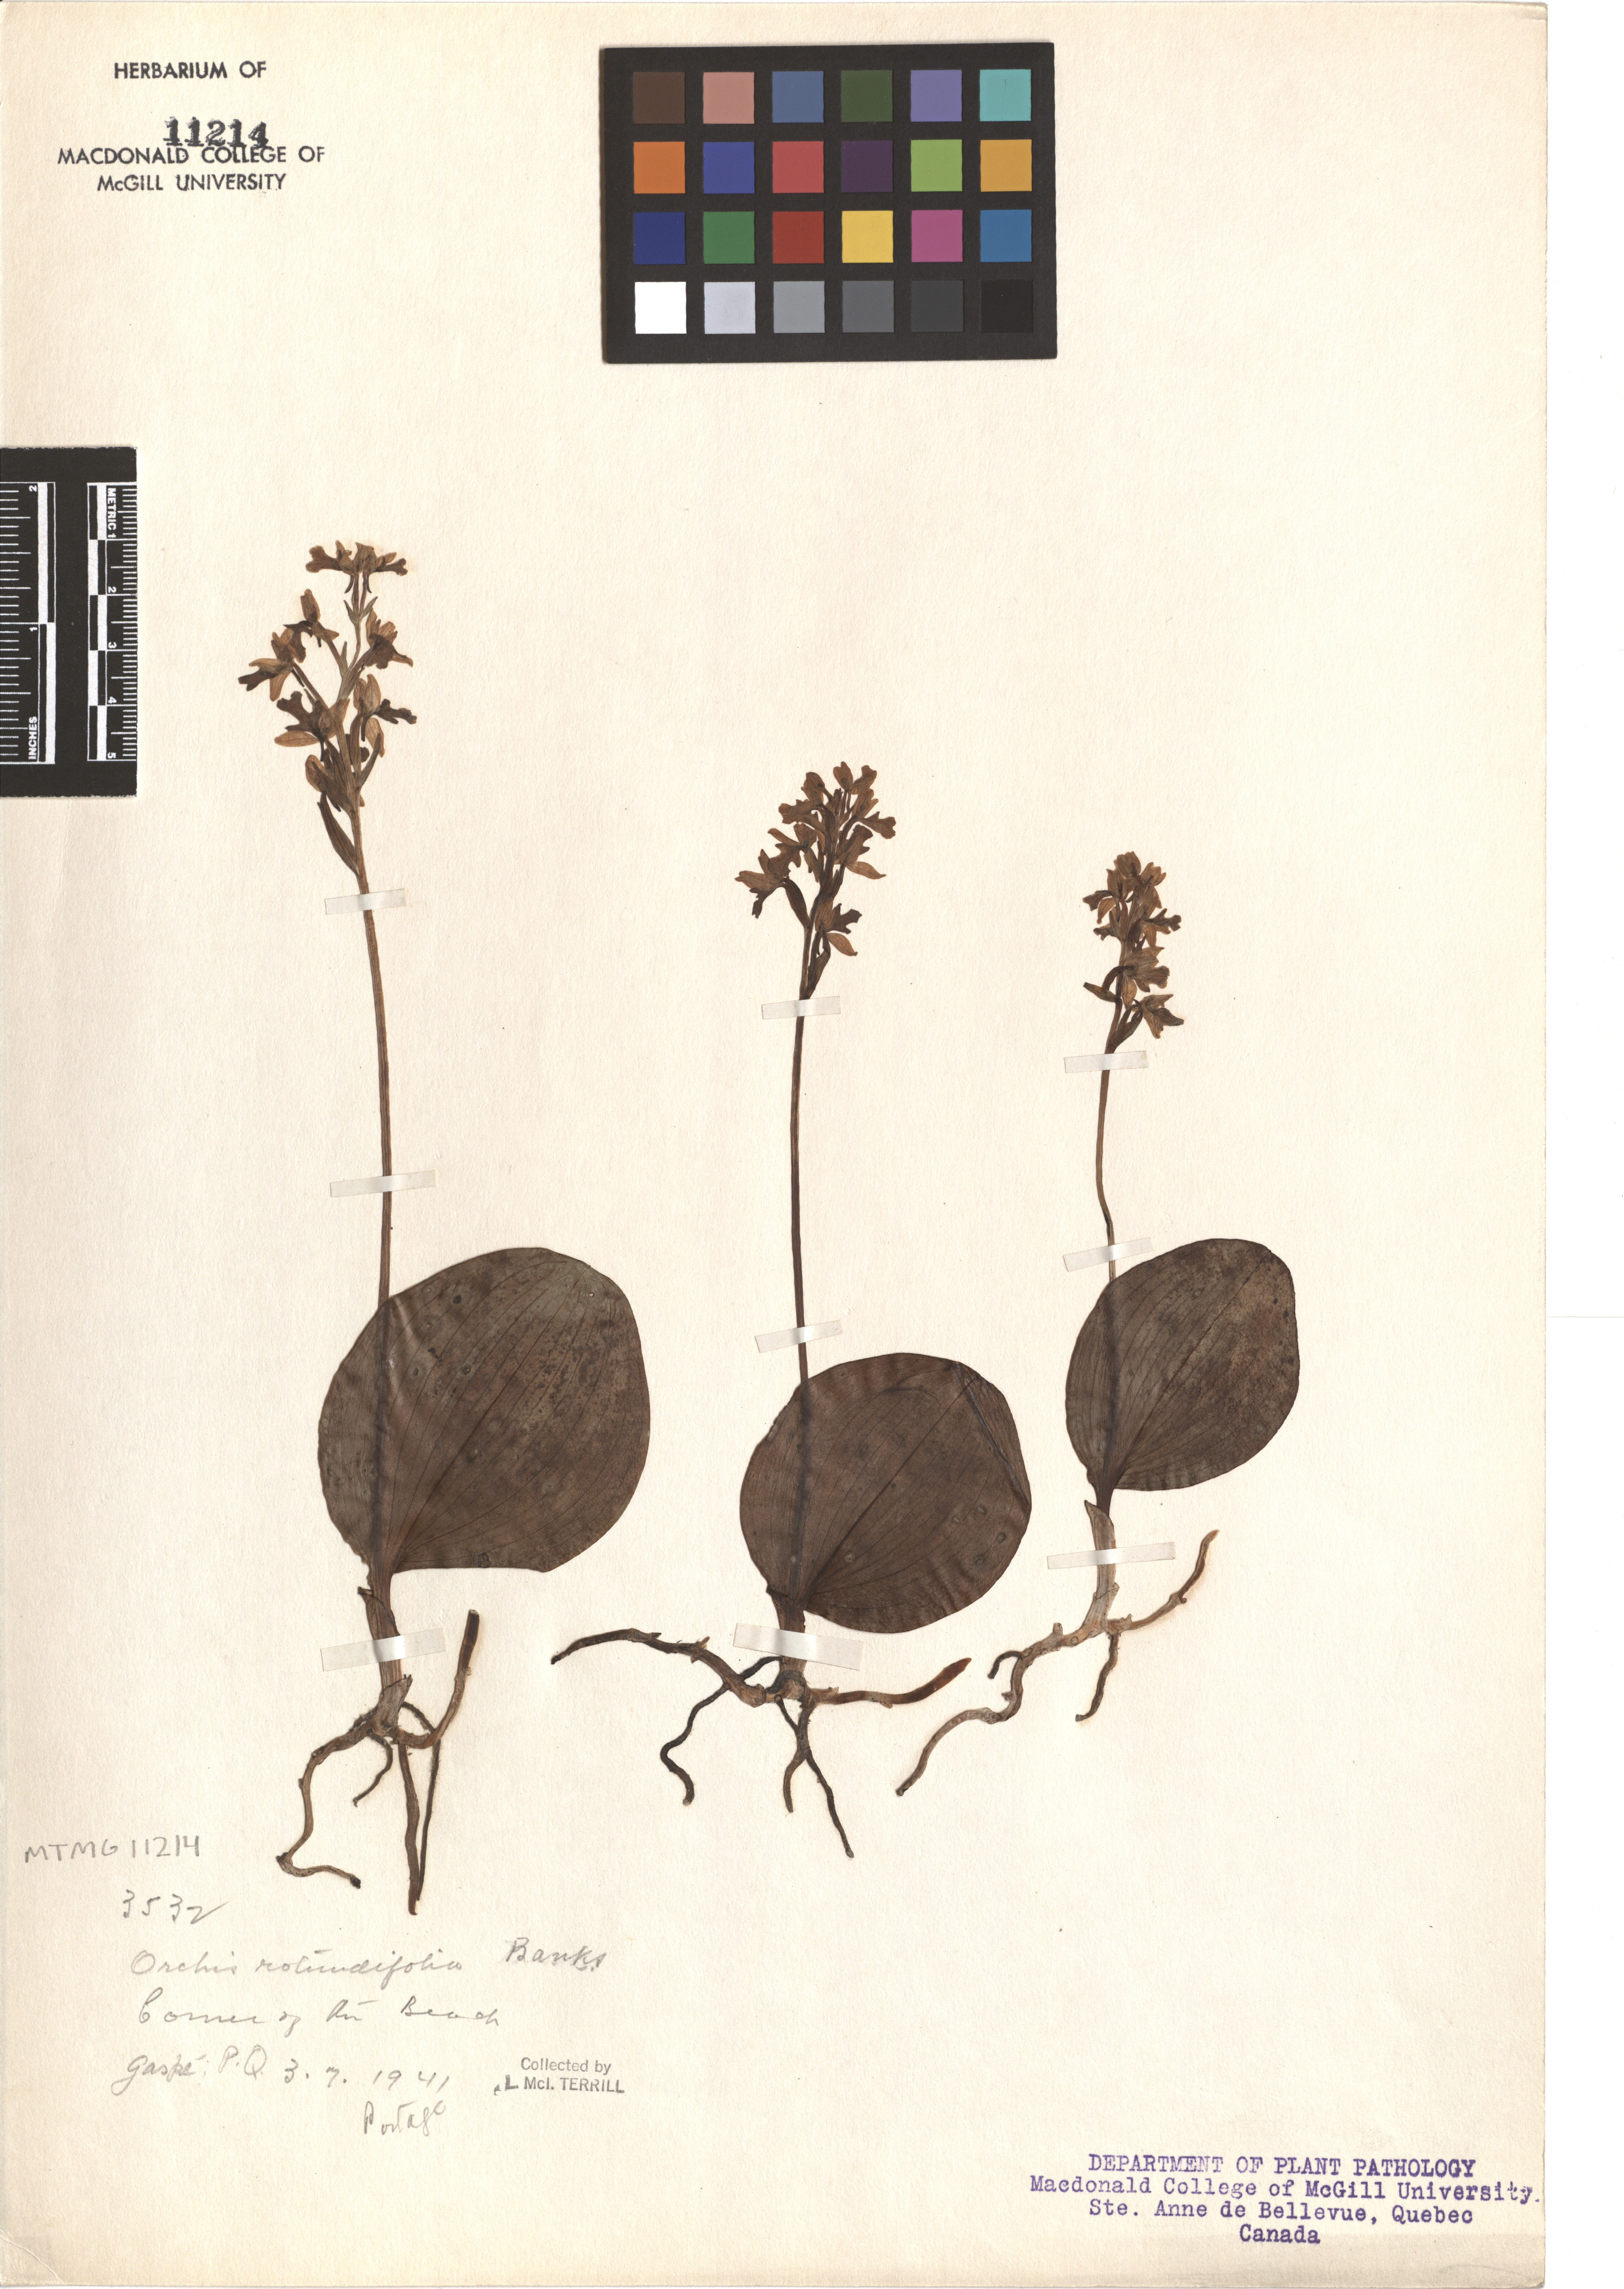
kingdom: Plantae
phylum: Tracheophyta
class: Liliopsida
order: Asparagales
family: Orchidaceae
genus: Galearis
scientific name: Galearis rotundifolia
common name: One-leaved orchis
